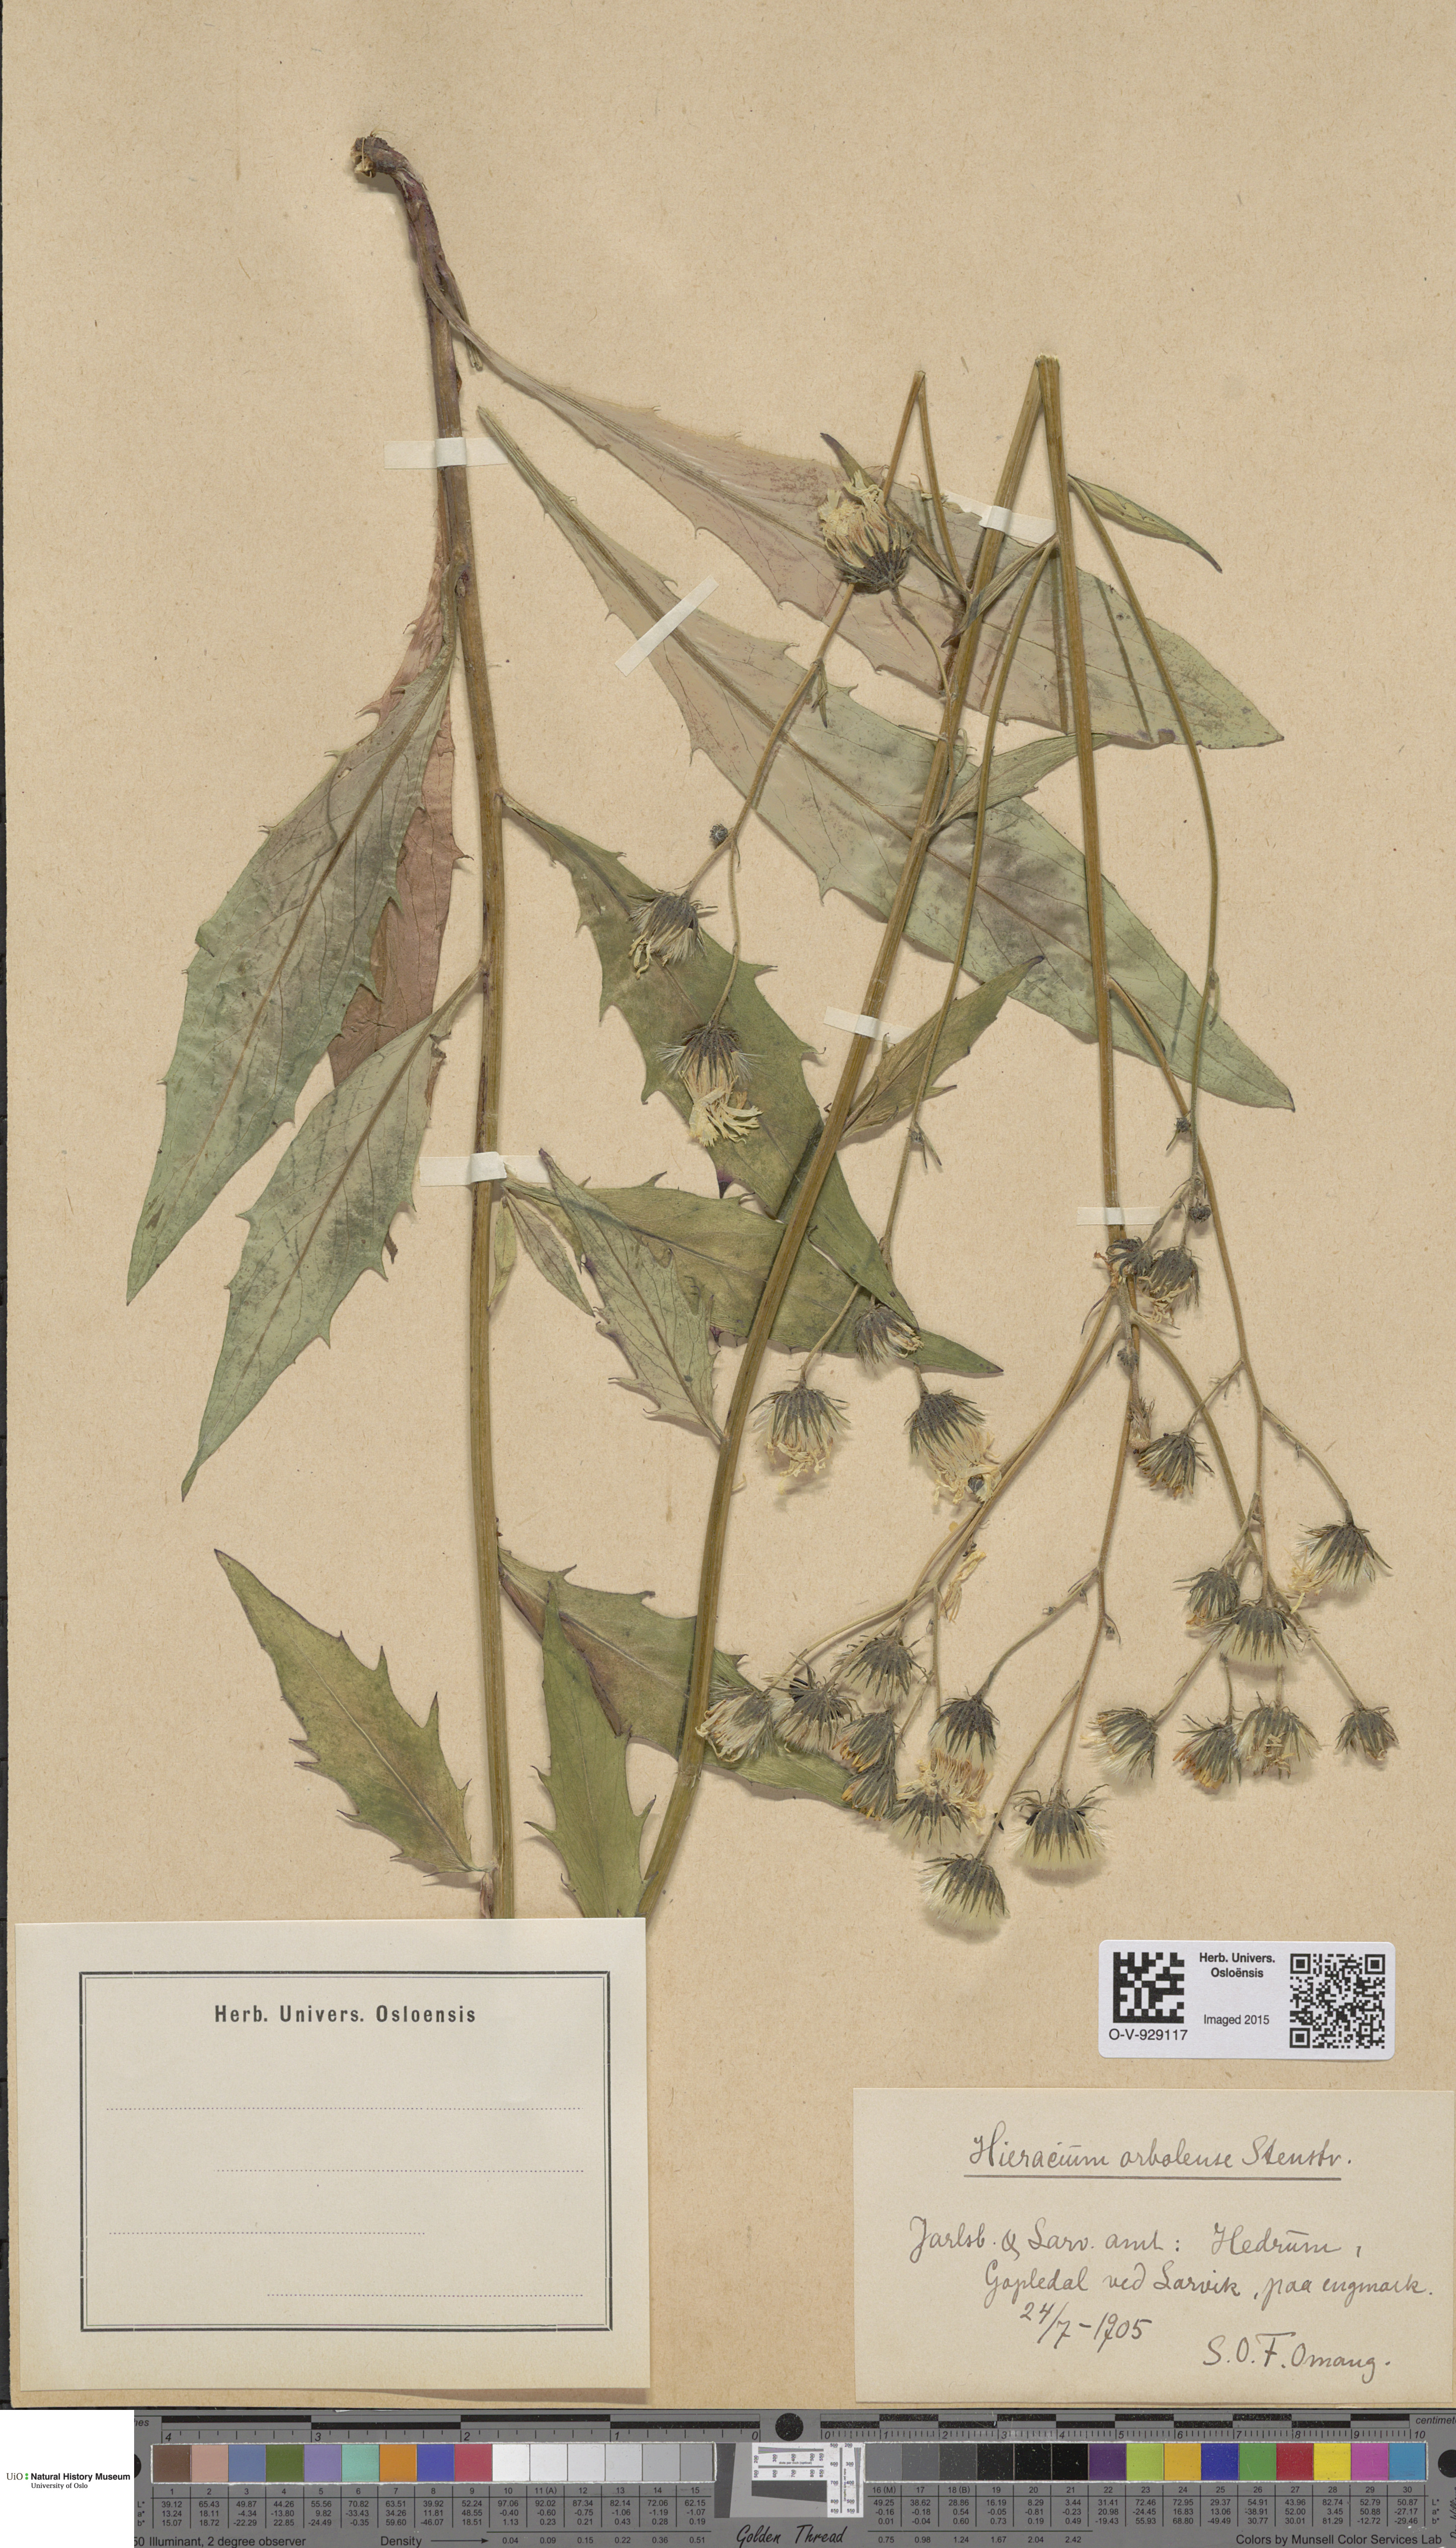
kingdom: Plantae
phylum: Tracheophyta
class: Magnoliopsida
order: Asterales
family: Asteraceae
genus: Hieracium
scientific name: Hieracium orbolense
